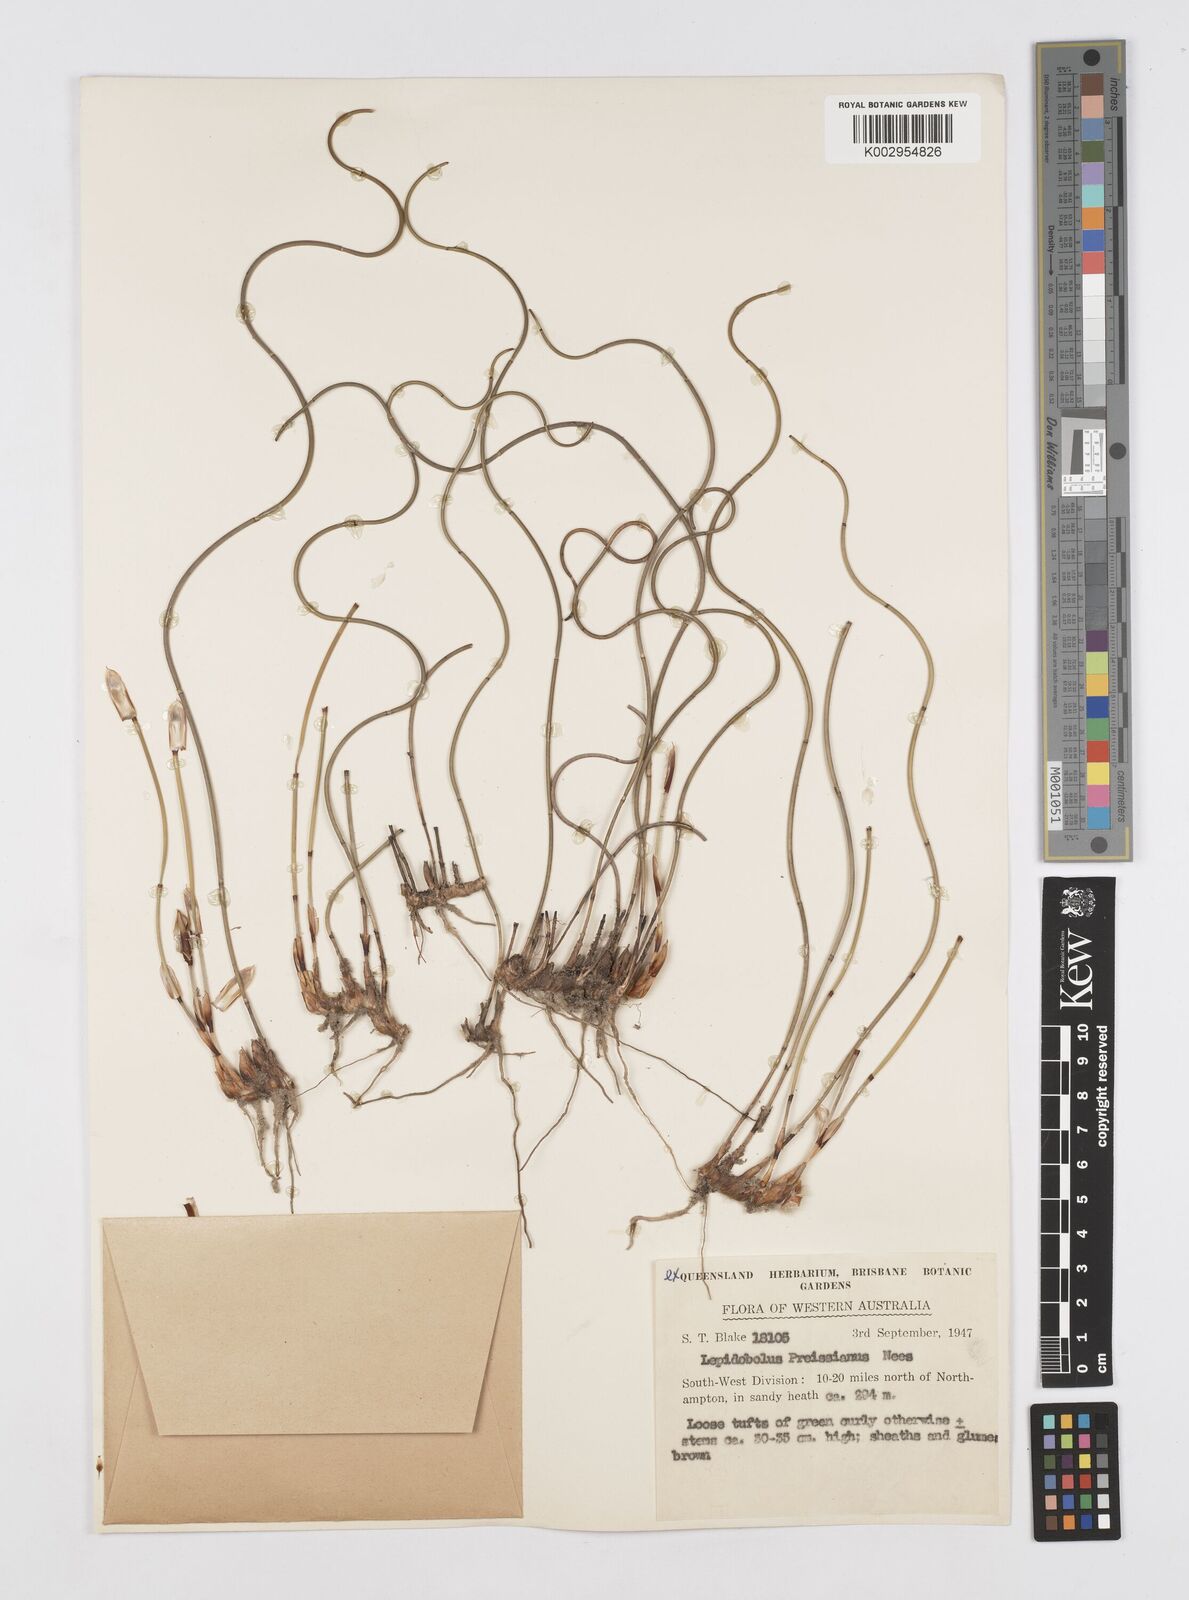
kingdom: Plantae
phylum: Tracheophyta
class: Liliopsida
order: Poales
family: Restionaceae
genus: Lepidobolus
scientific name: Lepidobolus preissianus
